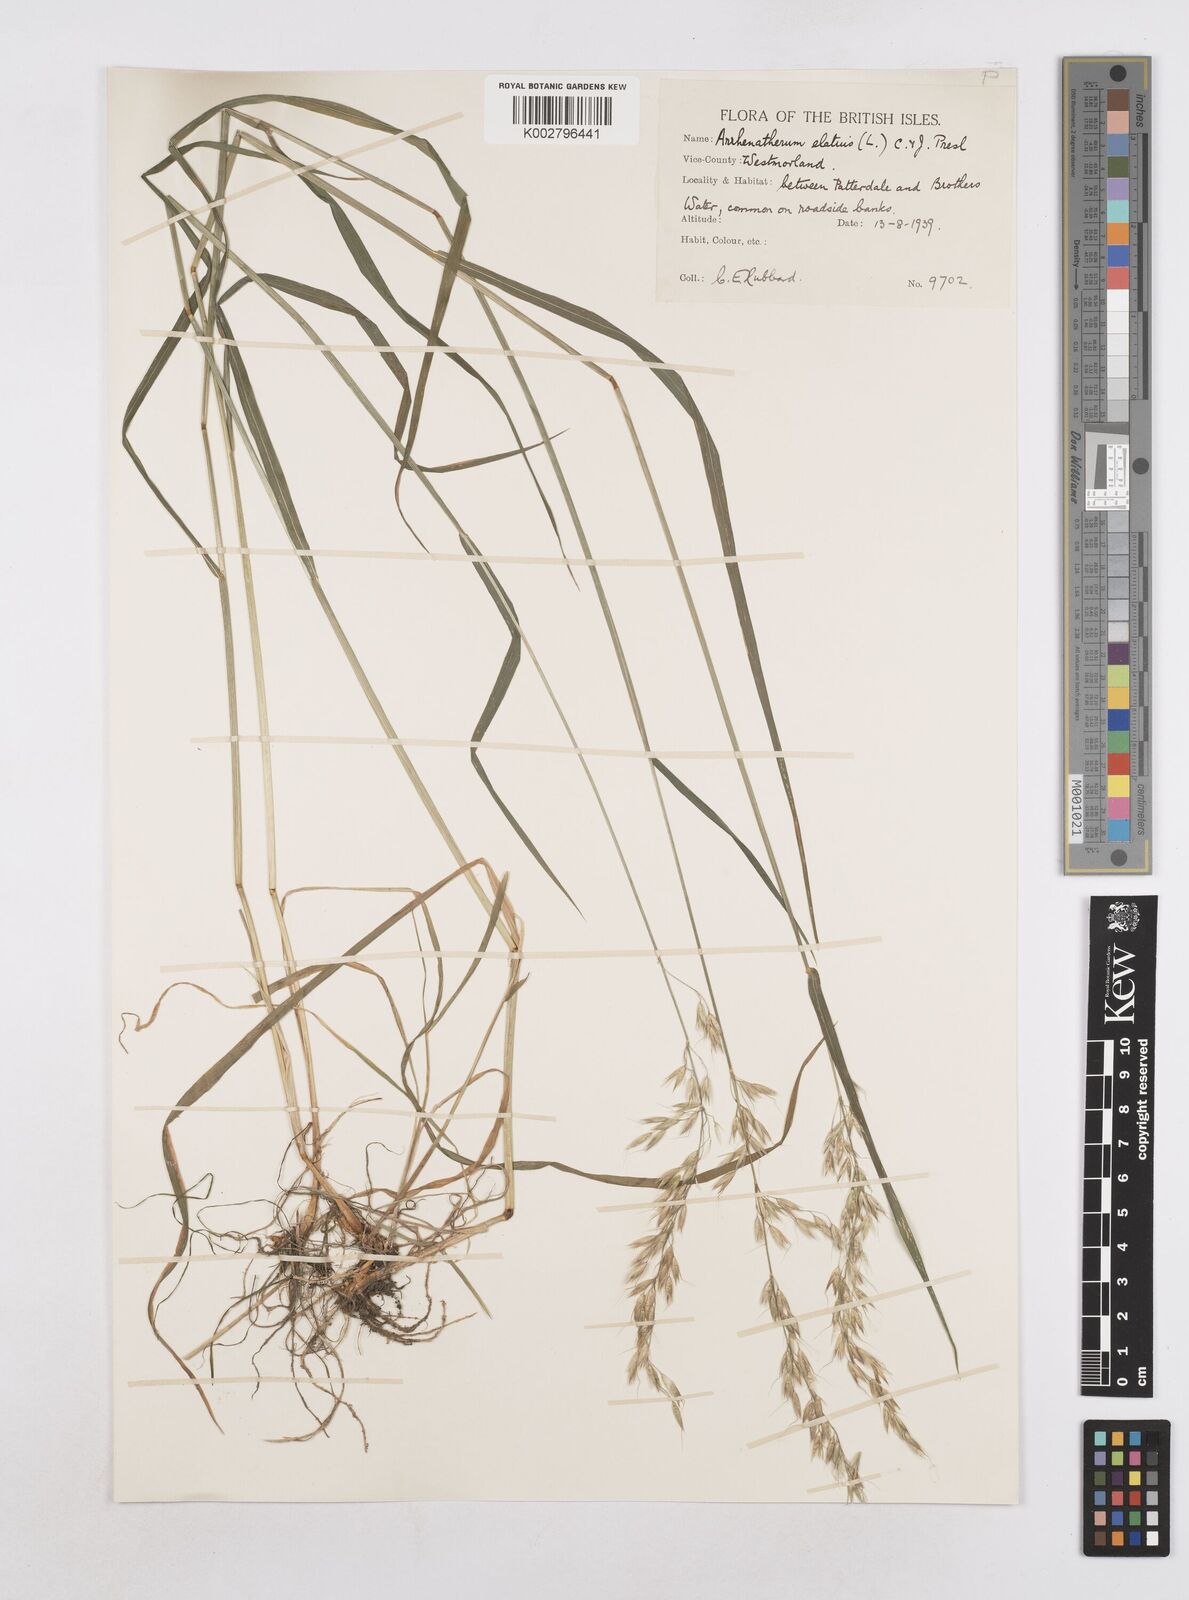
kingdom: Plantae
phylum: Tracheophyta
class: Liliopsida
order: Poales
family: Poaceae
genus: Arrhenatherum
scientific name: Arrhenatherum elatius
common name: Tall oatgrass
